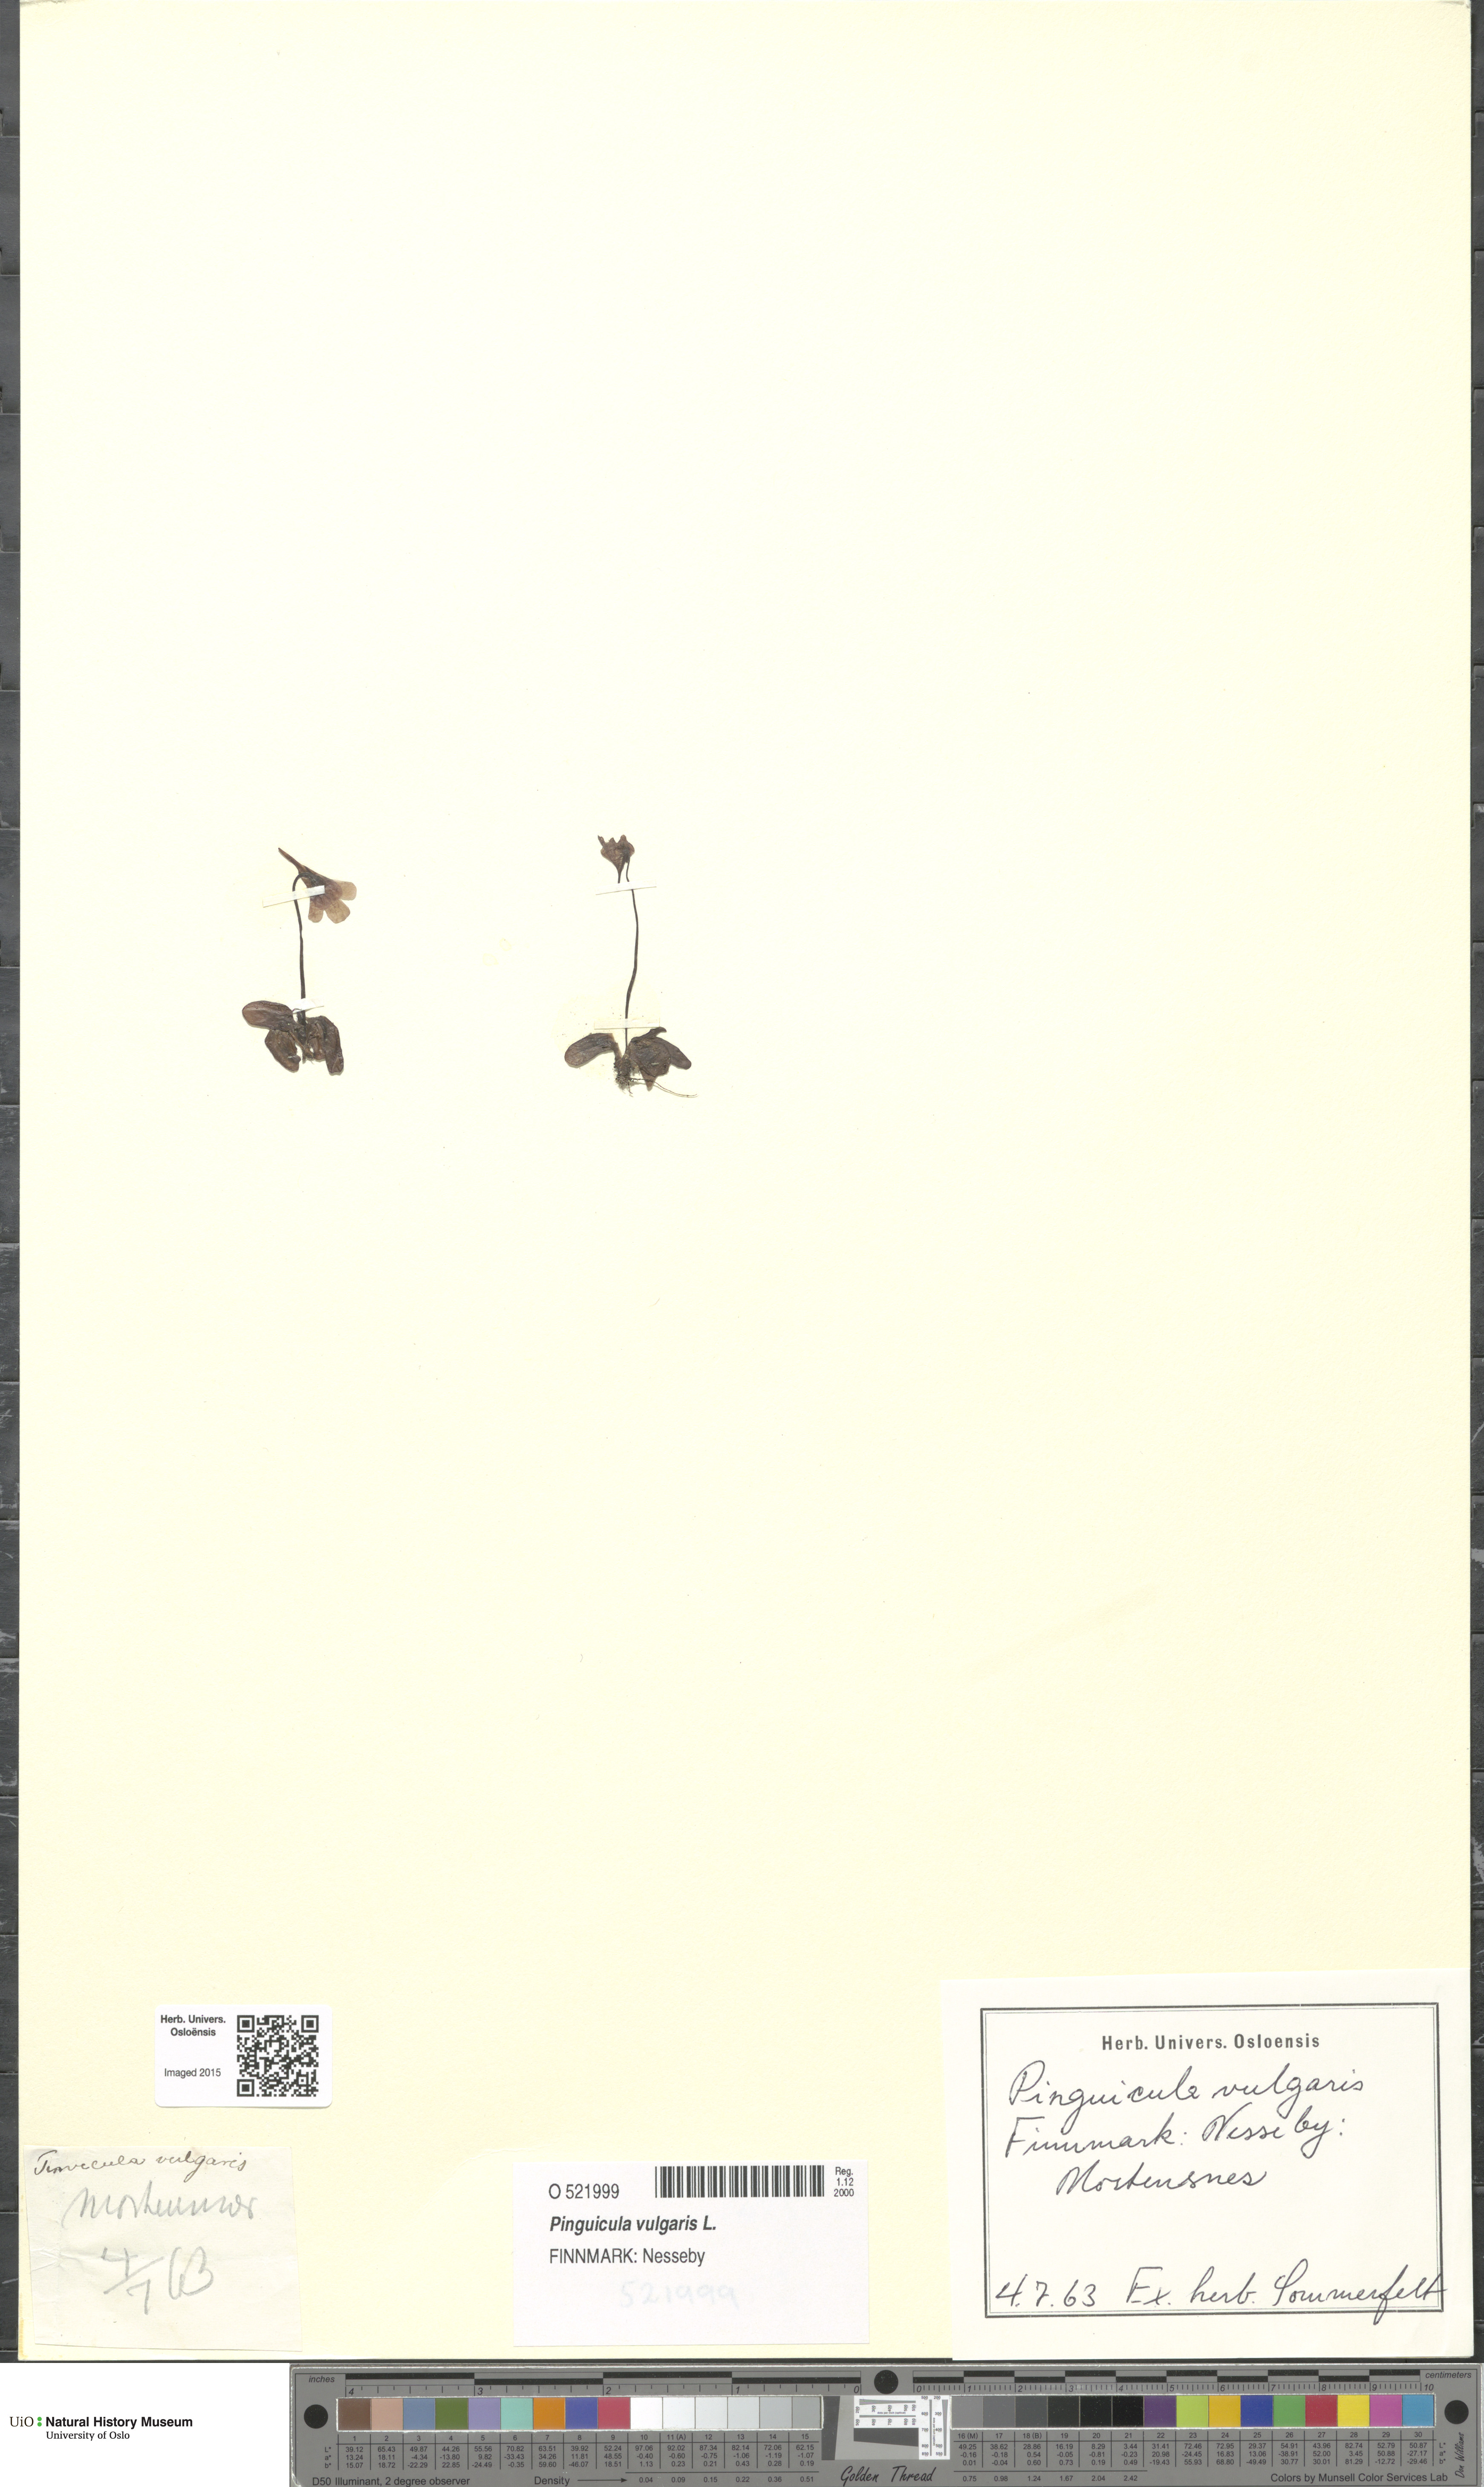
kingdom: Plantae
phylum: Tracheophyta
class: Magnoliopsida
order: Lamiales
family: Lentibulariaceae
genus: Pinguicula
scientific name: Pinguicula vulgaris
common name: Common butterwort
